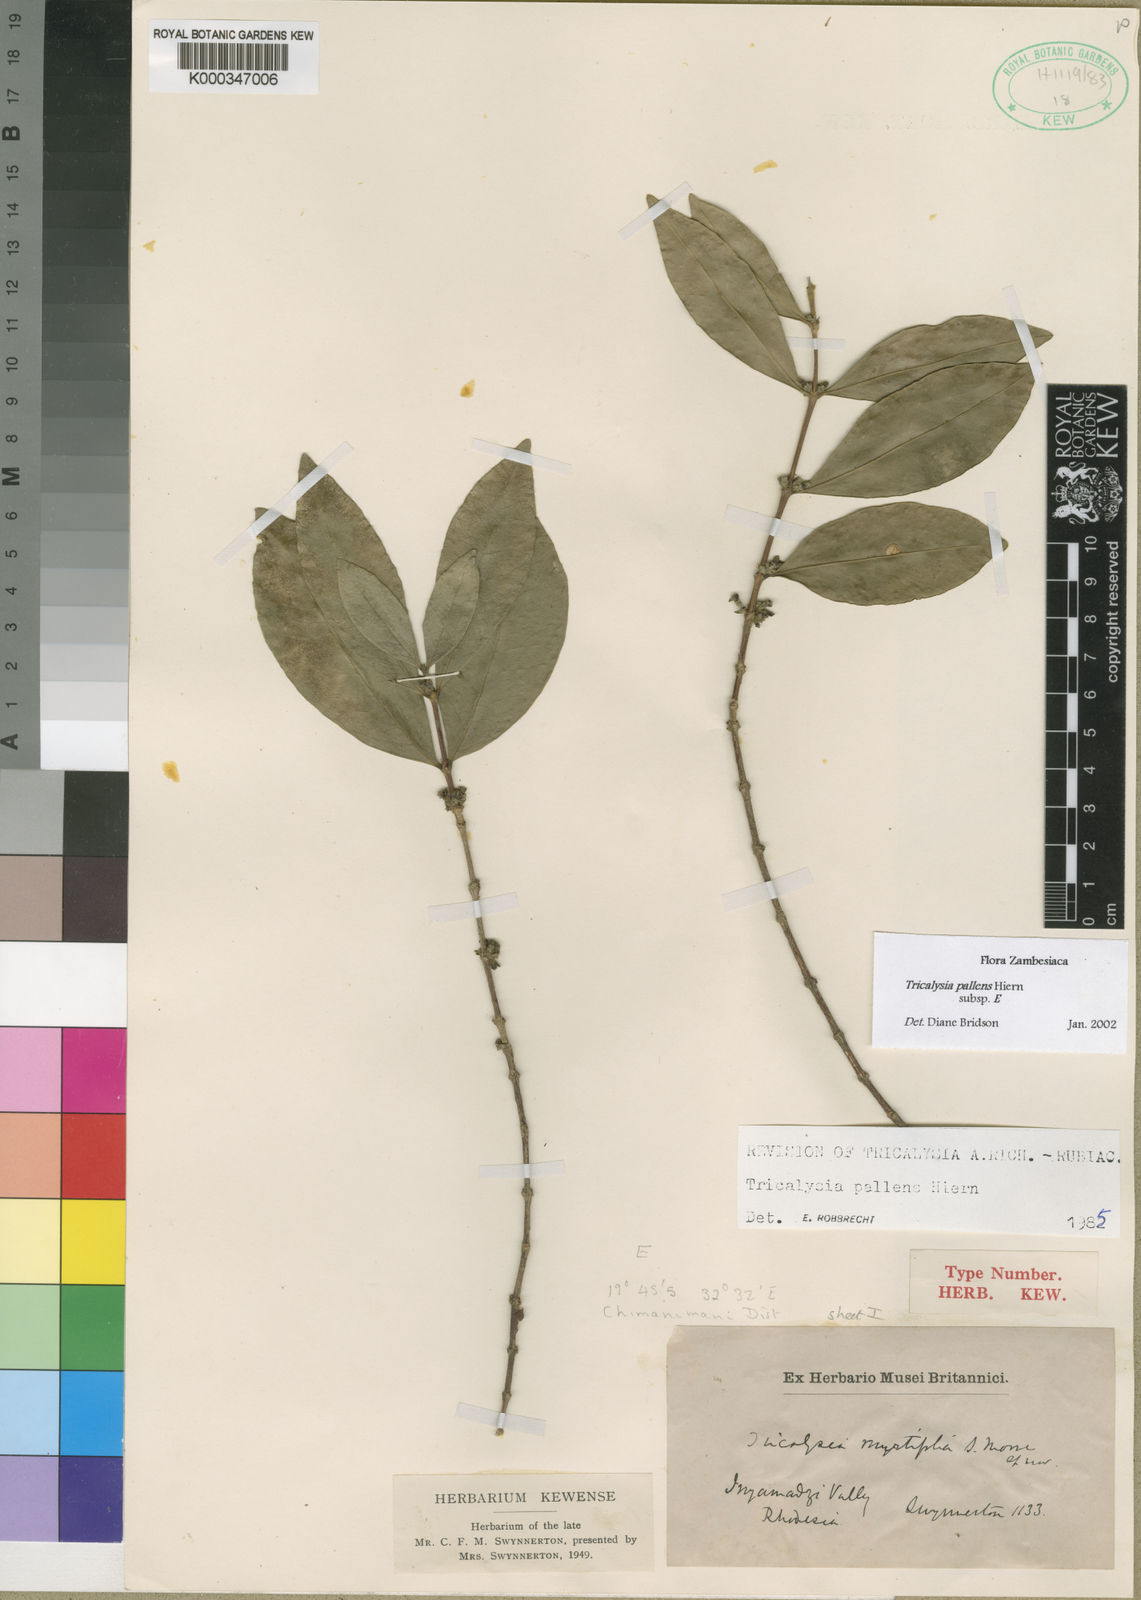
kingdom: Plantae
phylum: Tracheophyta
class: Magnoliopsida
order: Gentianales
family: Rubiaceae
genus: Tricalysia
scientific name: Tricalysia pallens
